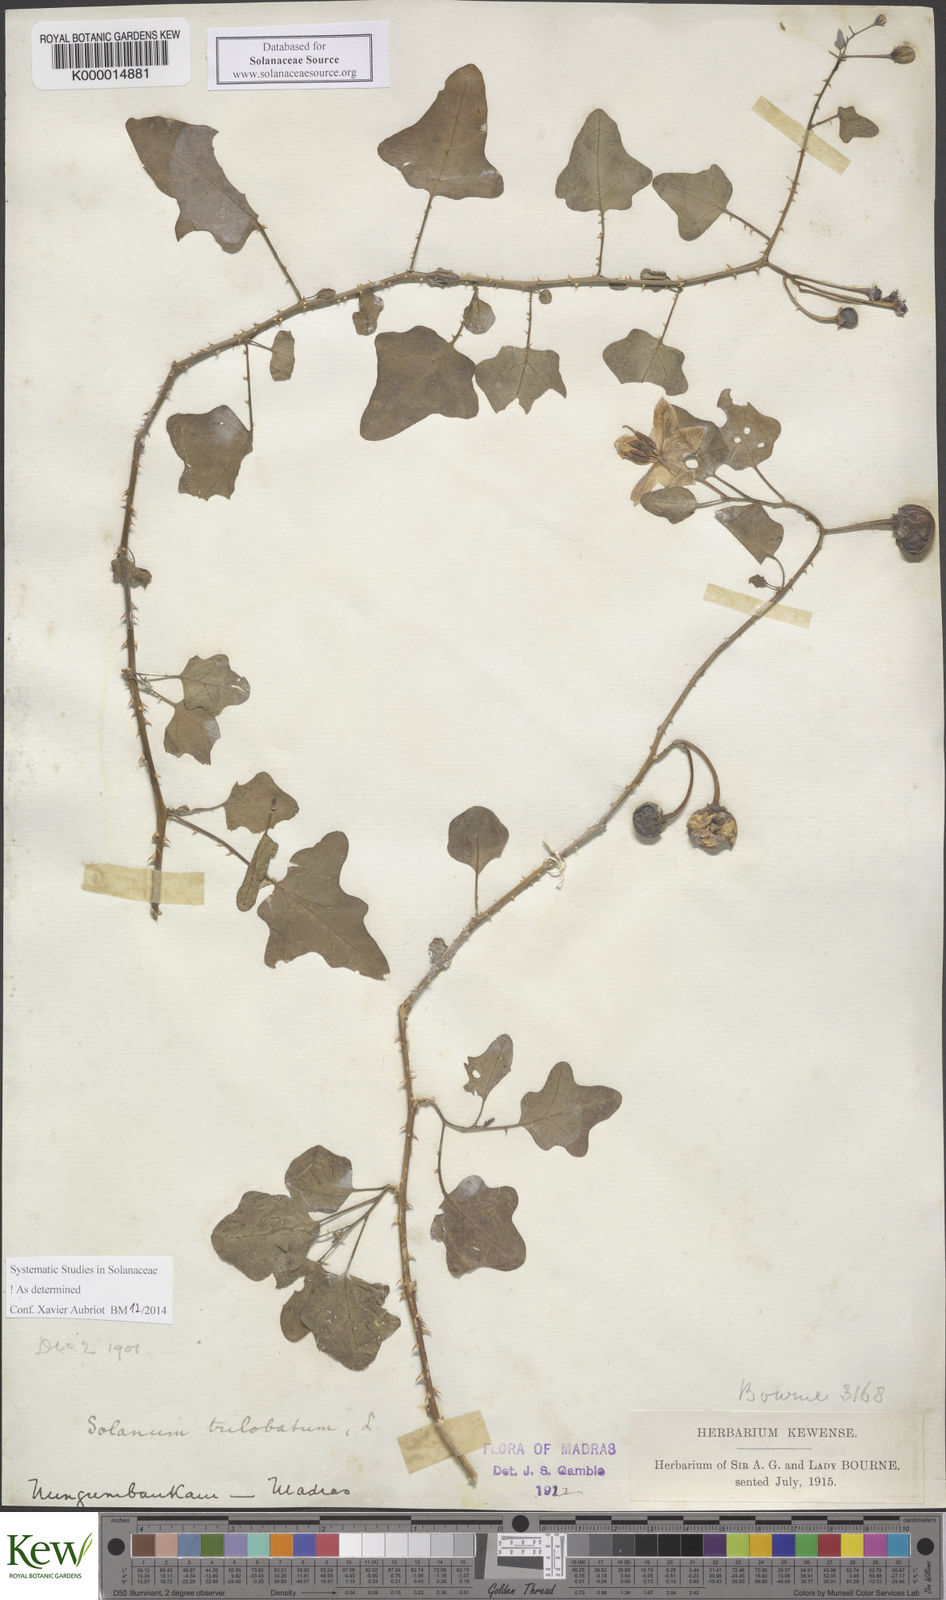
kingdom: Plantae
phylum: Tracheophyta
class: Magnoliopsida
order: Solanales
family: Solanaceae
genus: Solanum
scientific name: Solanum trilobatum
